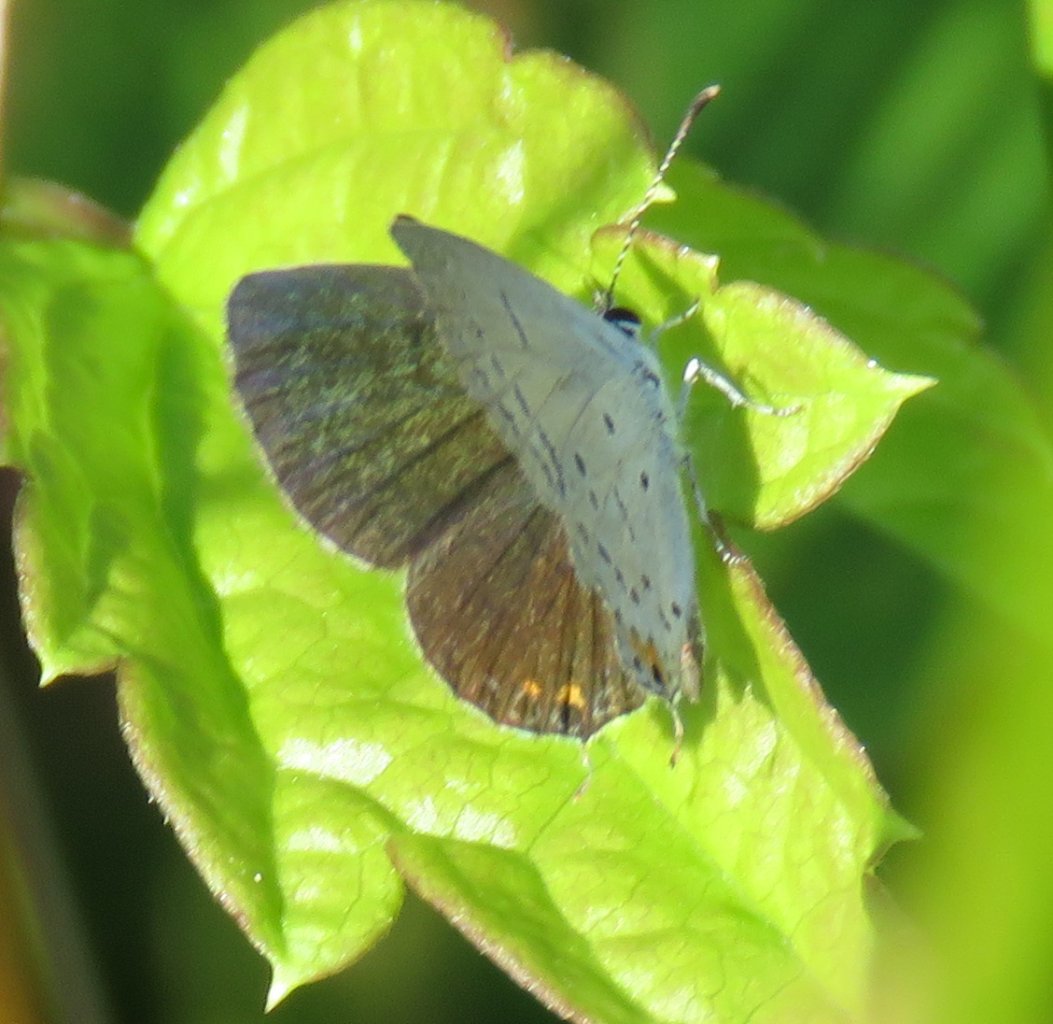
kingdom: Animalia
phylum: Arthropoda
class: Insecta
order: Lepidoptera
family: Lycaenidae
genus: Elkalyce
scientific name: Elkalyce comyntas
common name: Eastern Tailed-Blue
